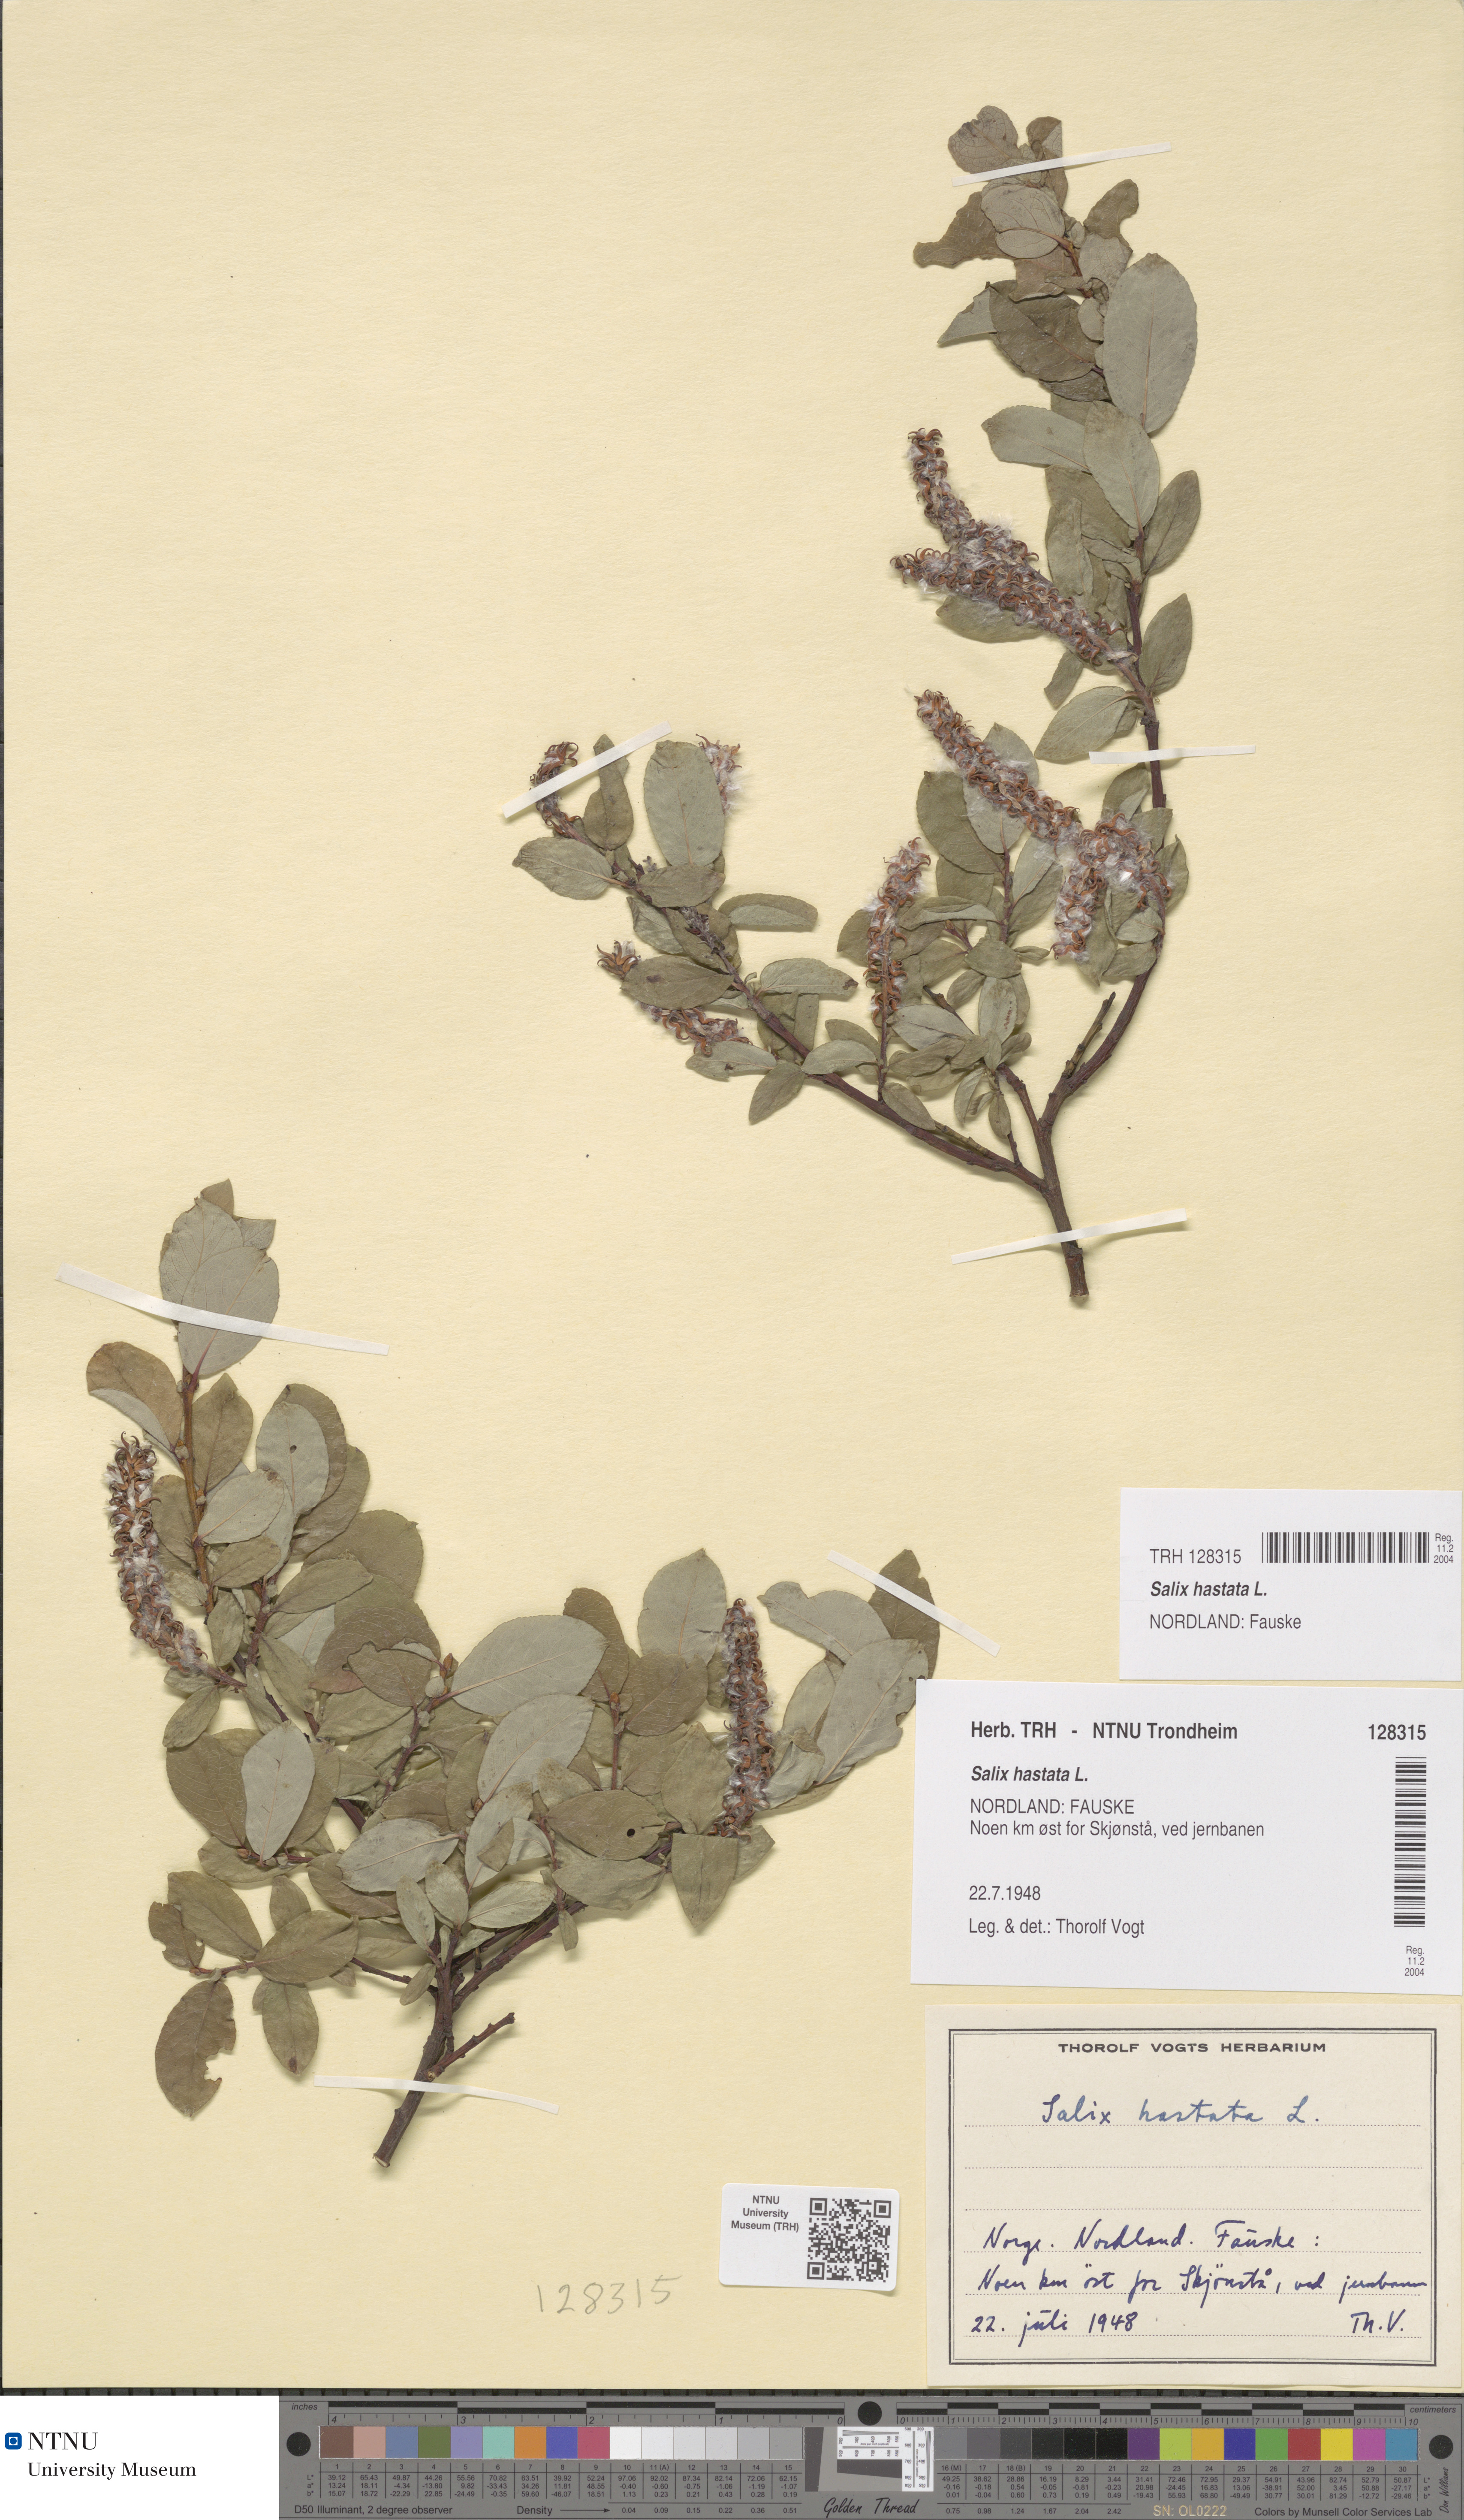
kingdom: Plantae
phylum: Tracheophyta
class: Magnoliopsida
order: Malpighiales
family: Salicaceae
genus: Salix
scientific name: Salix hastata
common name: Halberd willow
